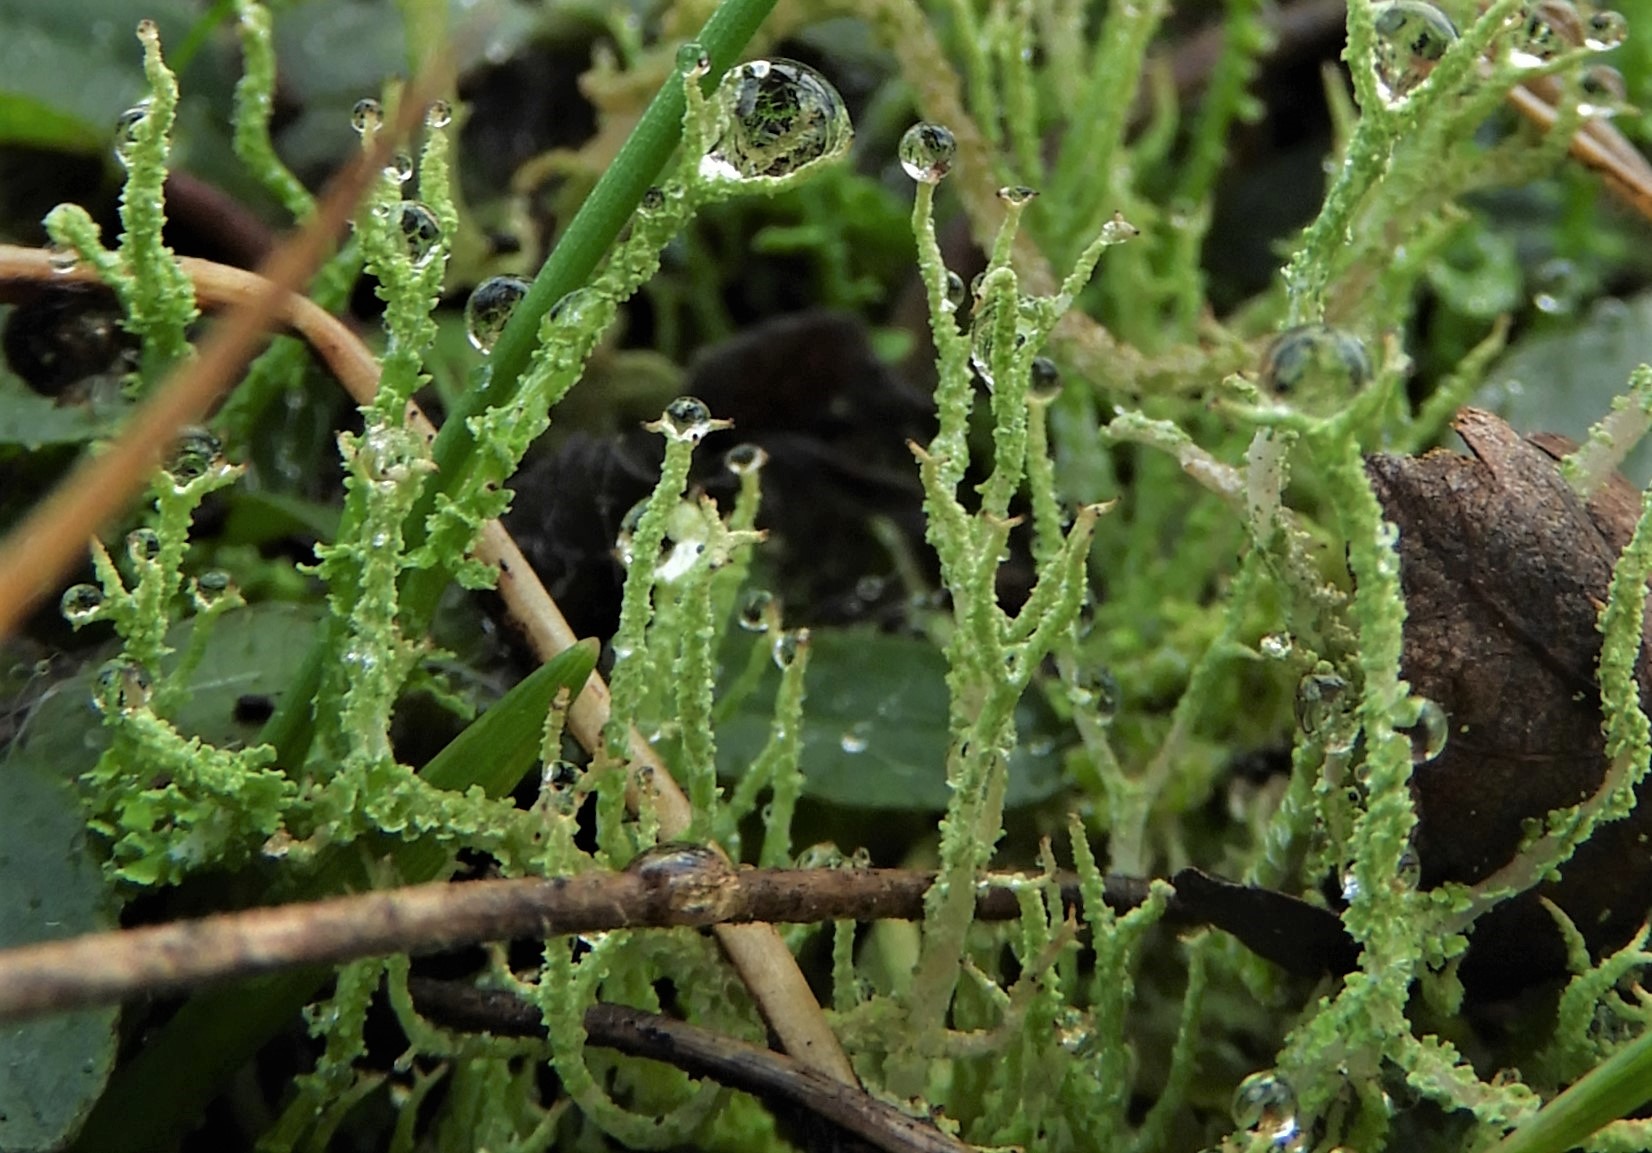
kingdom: Fungi
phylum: Ascomycota
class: Lecanoromycetes
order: Lecanorales
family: Cladoniaceae
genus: Cladonia
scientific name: Cladonia scabriuscula
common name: ru bægerlav
